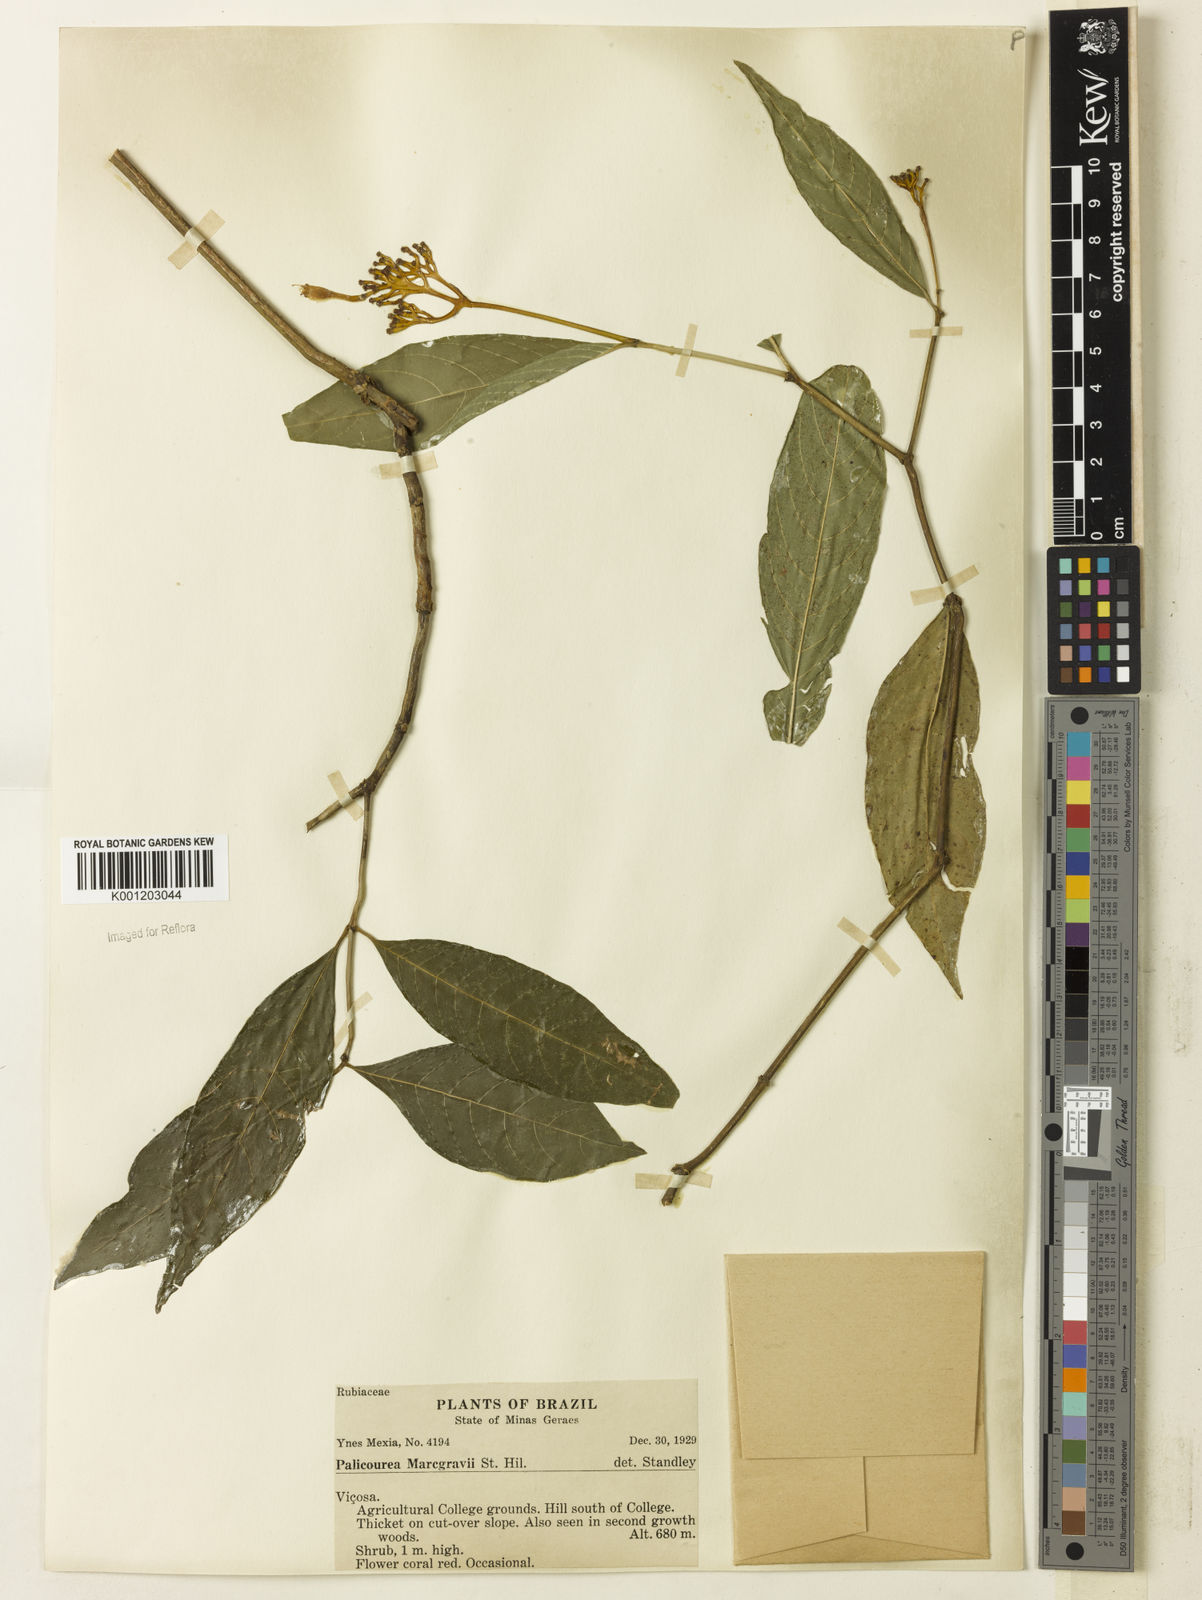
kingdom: Plantae
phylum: Tracheophyta
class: Magnoliopsida
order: Gentianales
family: Rubiaceae
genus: Palicourea
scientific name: Palicourea marcgravii
